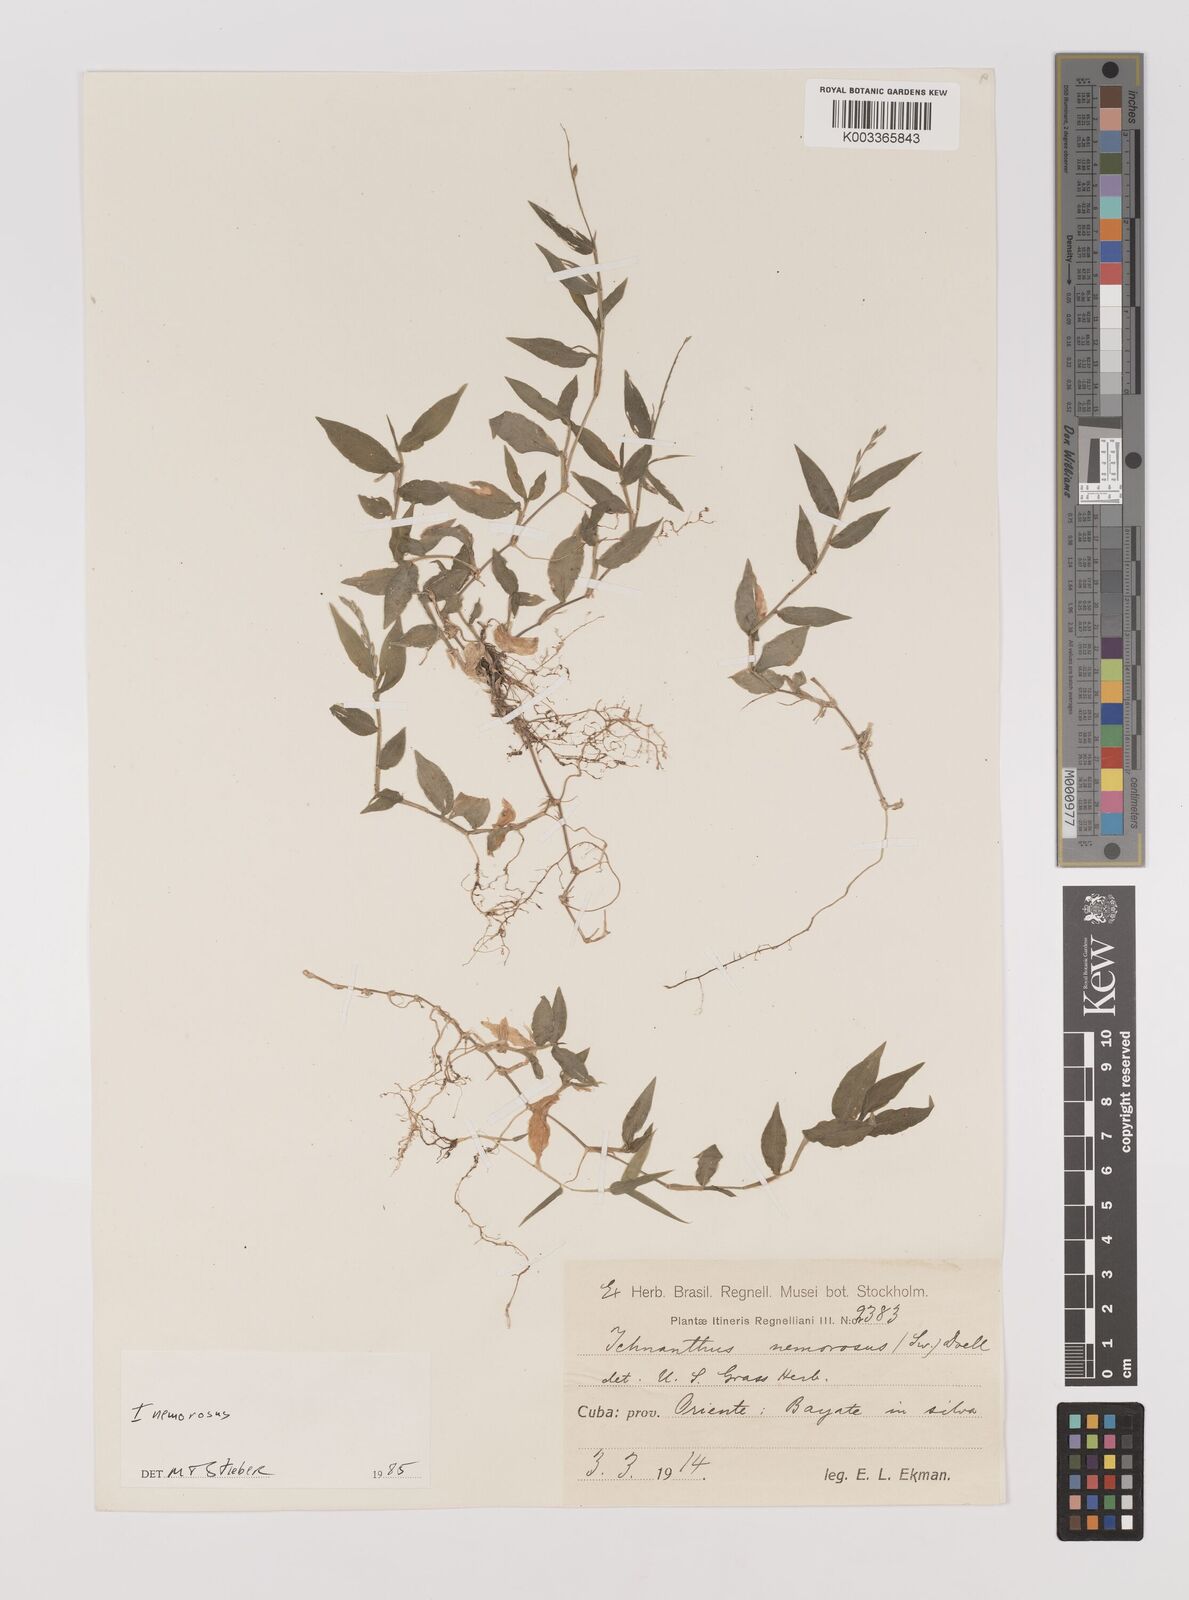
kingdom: Plantae
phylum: Tracheophyta
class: Liliopsida
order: Poales
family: Poaceae
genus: Ichnanthus
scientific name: Ichnanthus nemorosus
